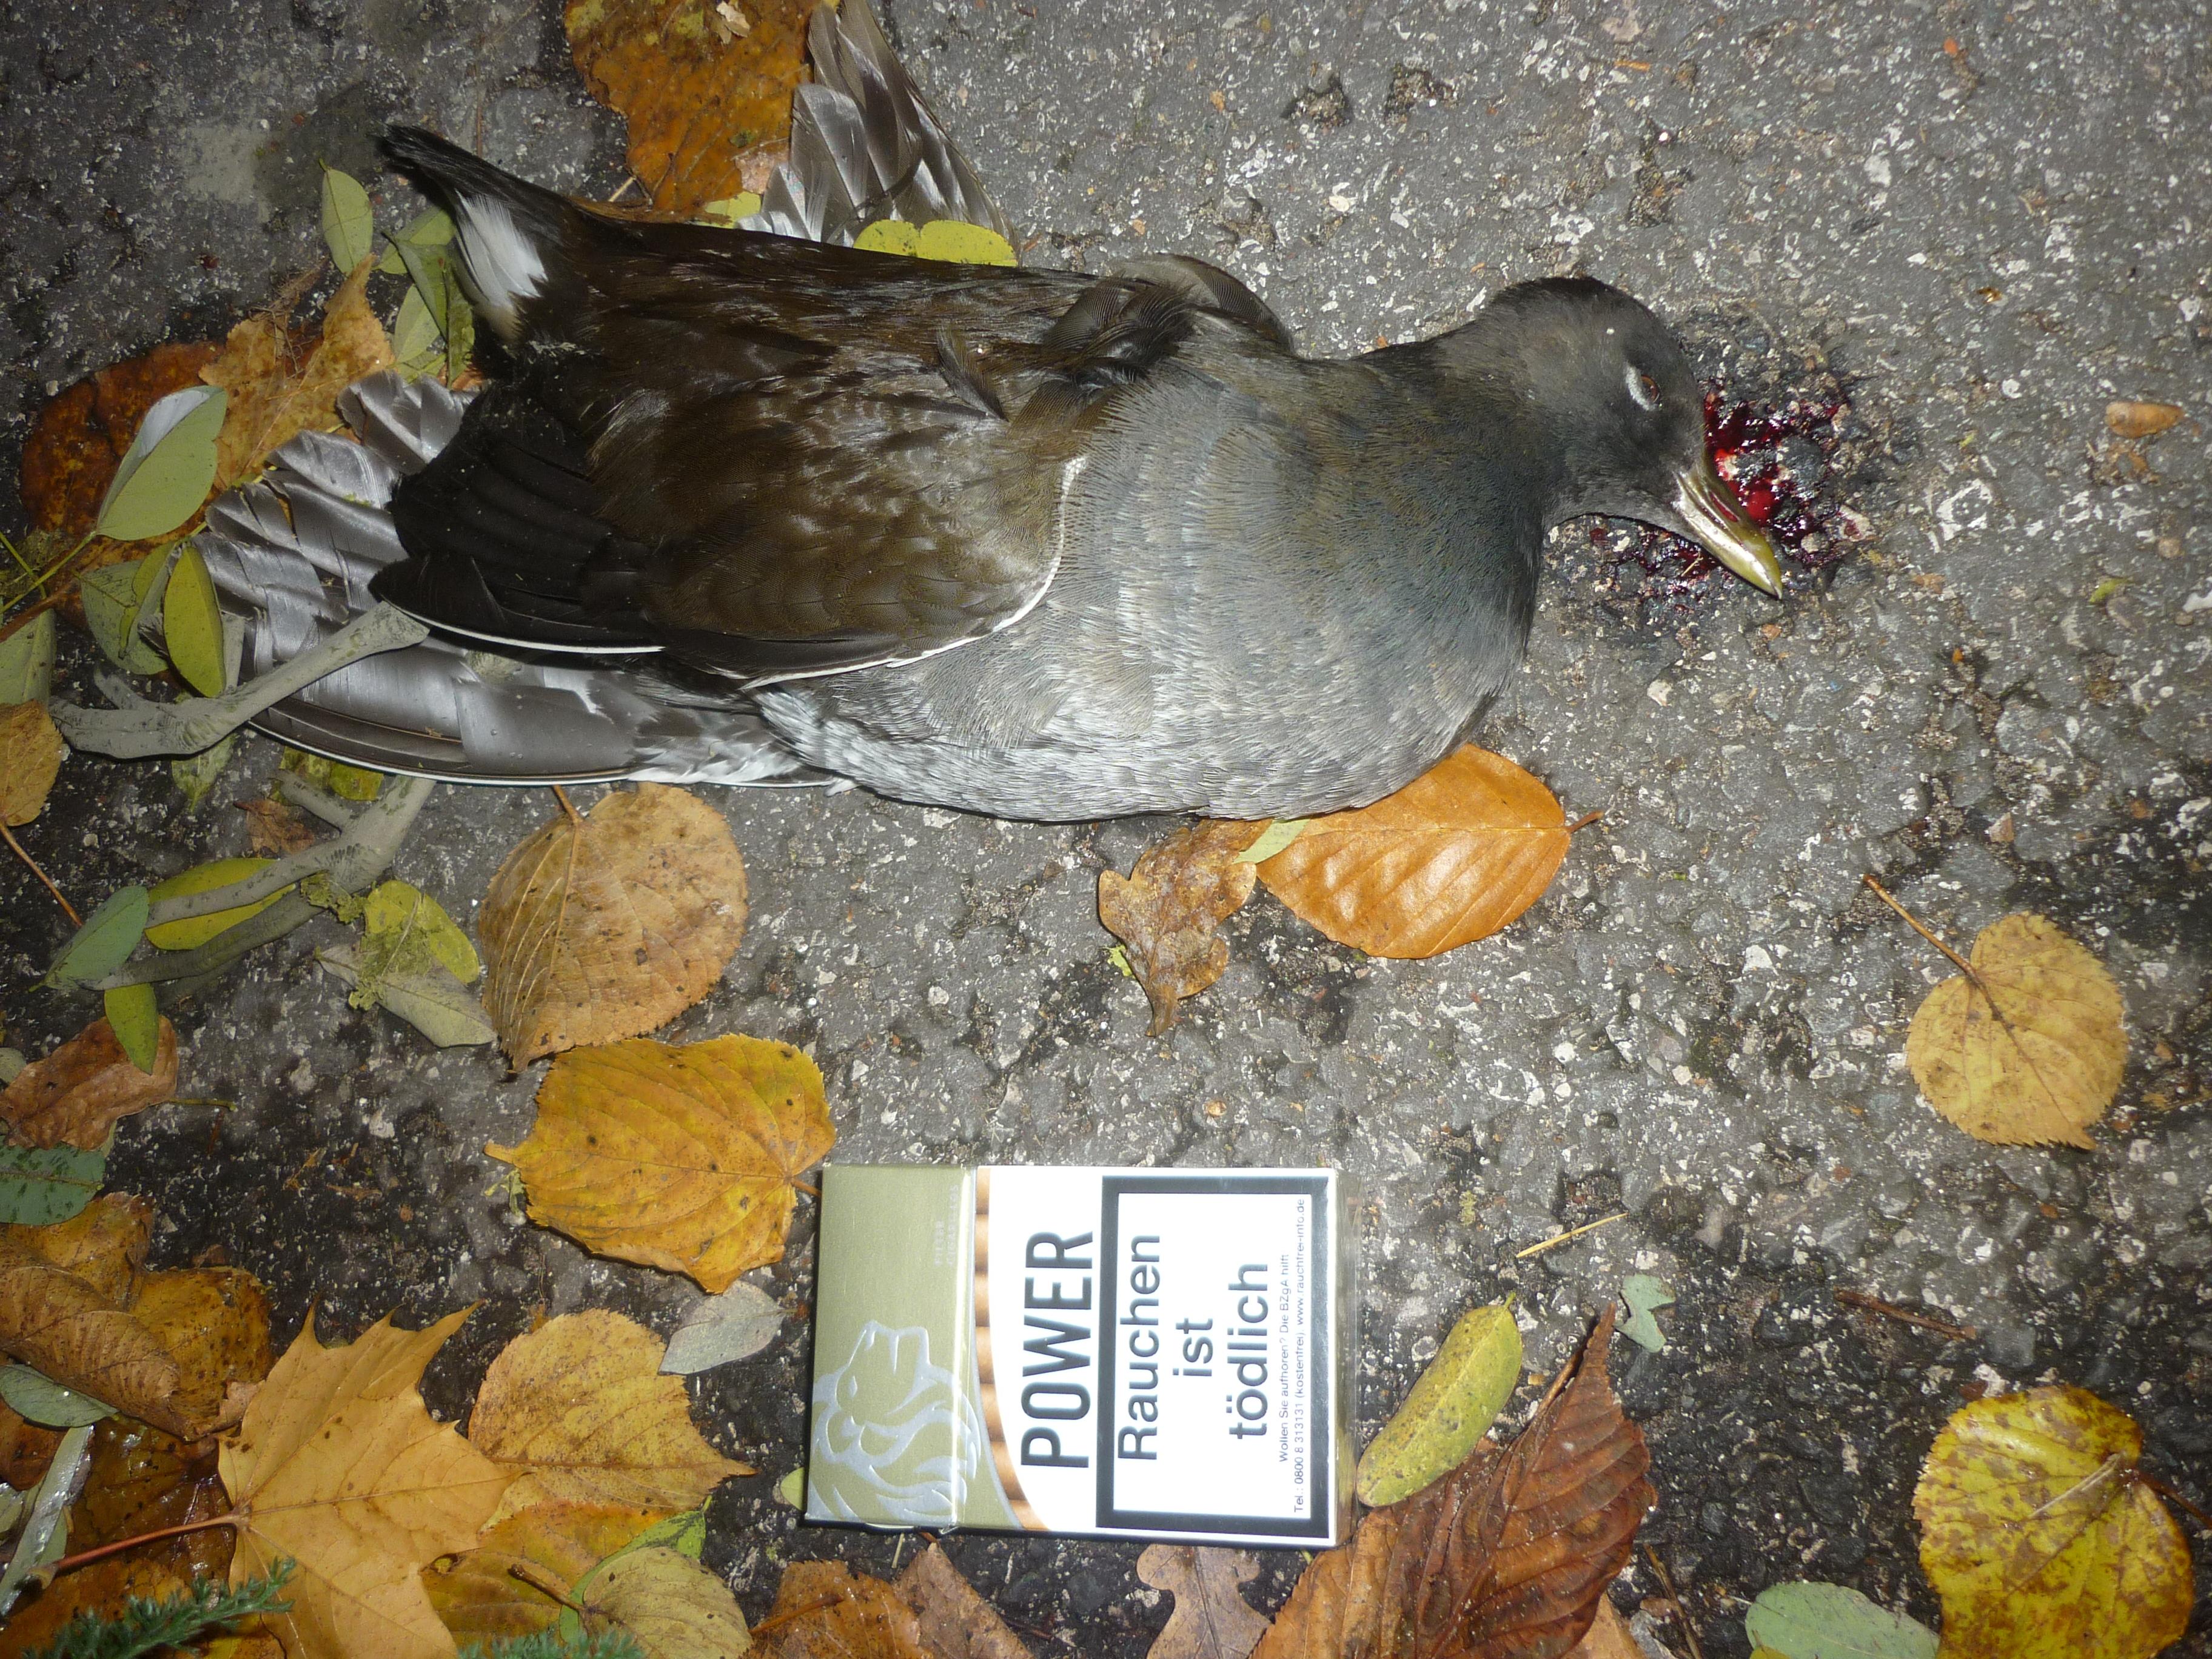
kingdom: Animalia
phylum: Chordata
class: Aves
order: Gruiformes
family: Rallidae
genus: Gallinula
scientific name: Gallinula chloropus
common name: Common moorhen
